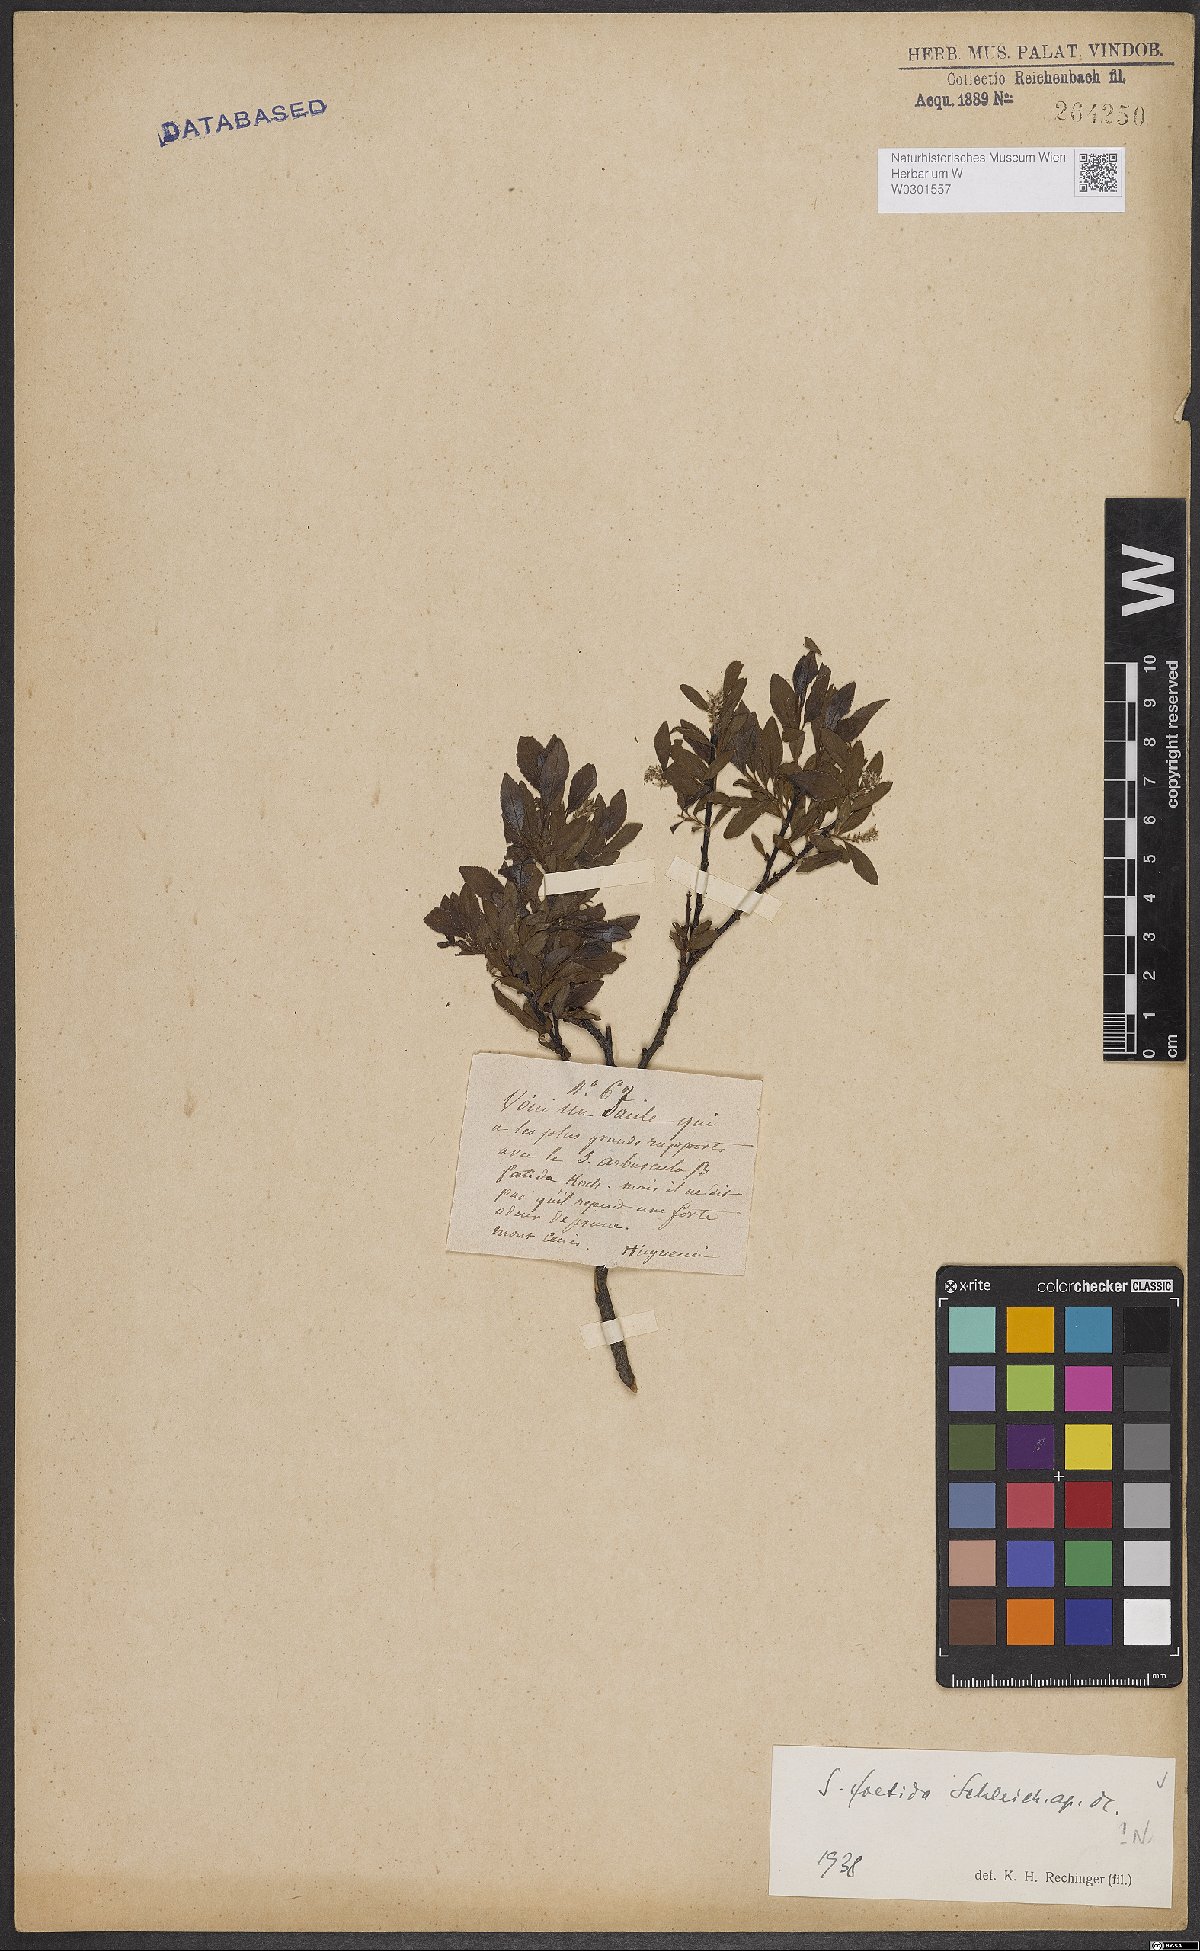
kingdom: Plantae
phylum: Tracheophyta
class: Magnoliopsida
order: Malpighiales
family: Salicaceae
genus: Salix
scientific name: Salix foetida
